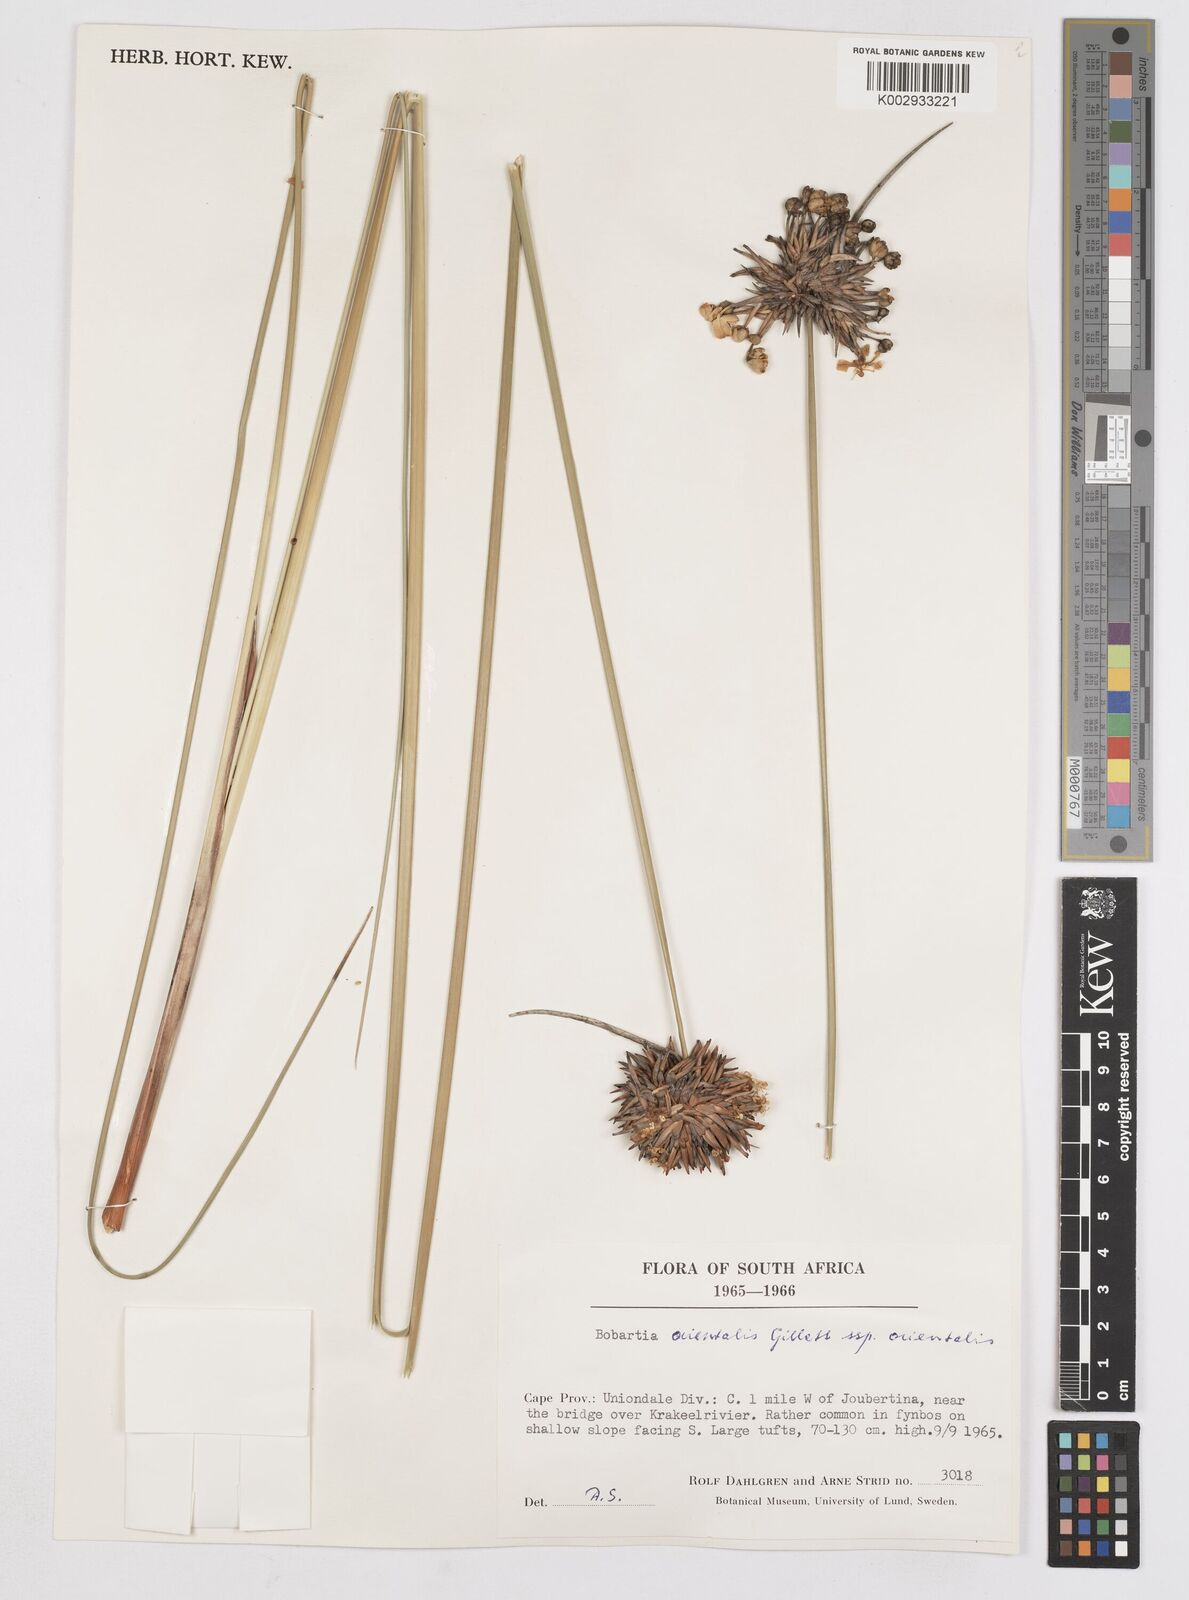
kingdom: Plantae
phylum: Tracheophyta
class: Liliopsida
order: Asparagales
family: Iridaceae
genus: Bobartia
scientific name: Bobartia orientalis
